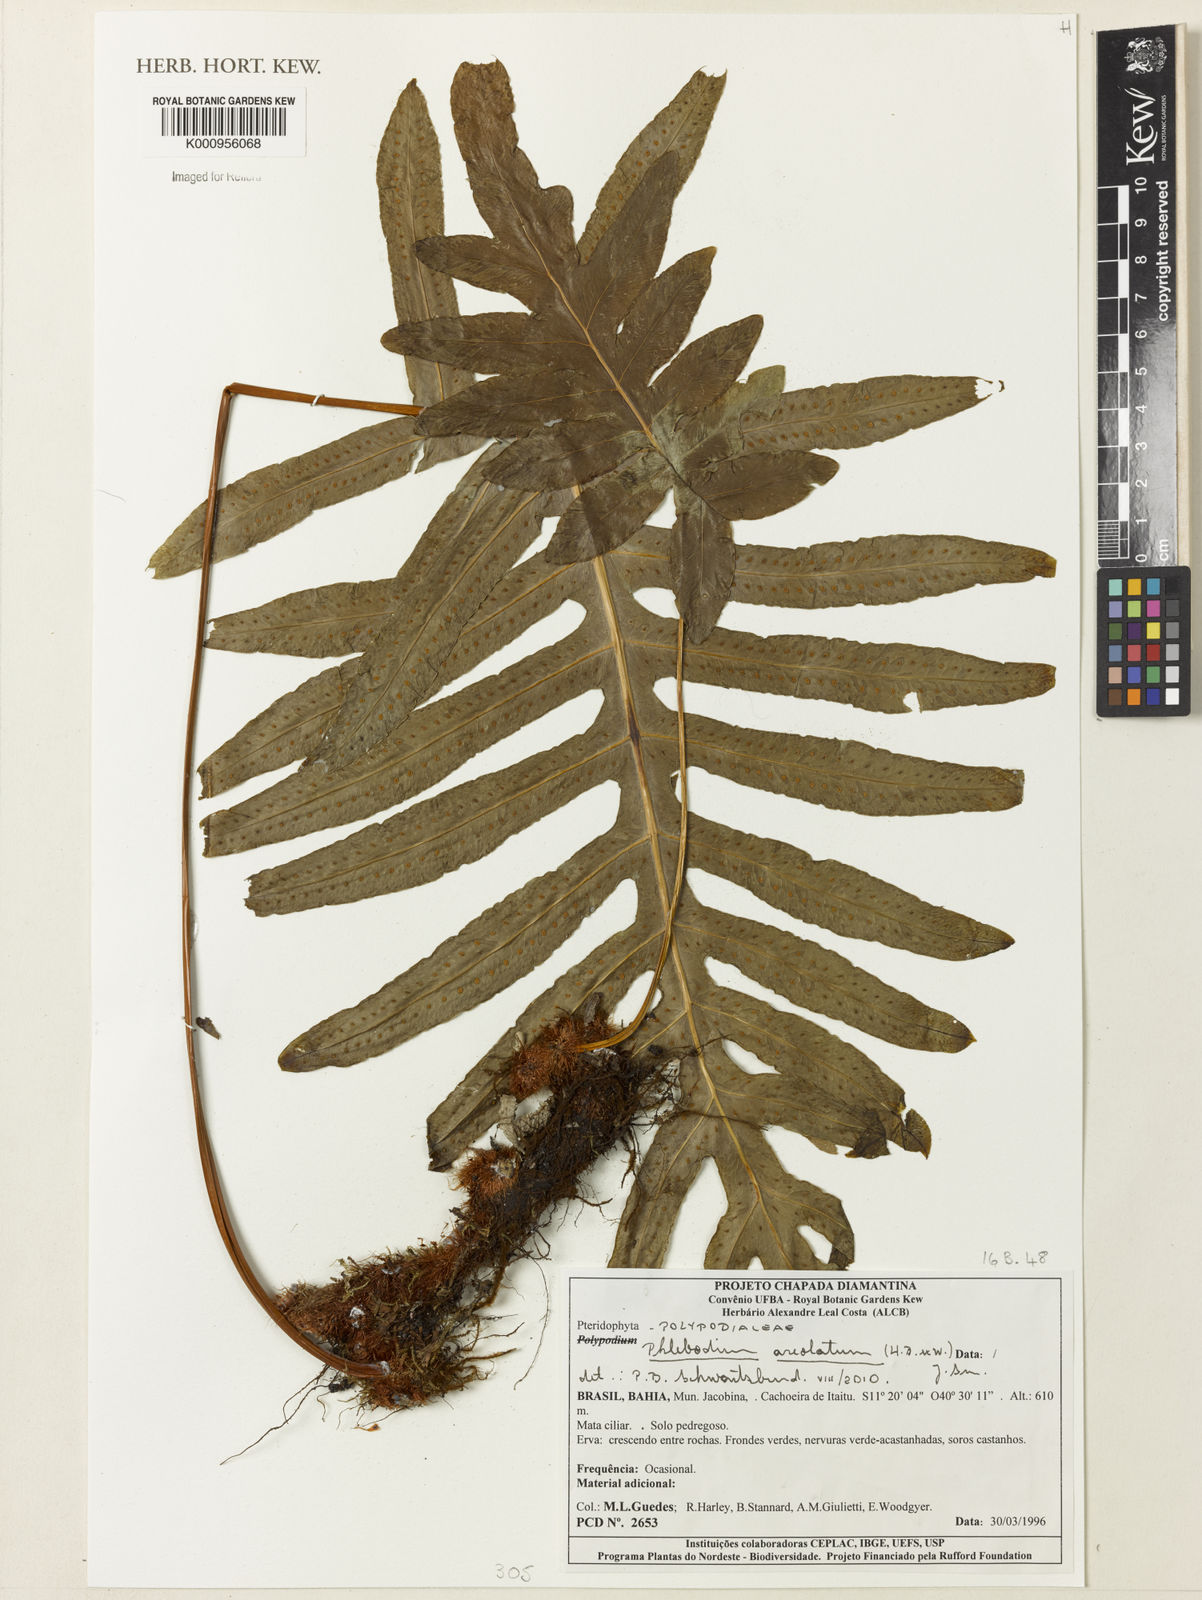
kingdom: Plantae
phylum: Tracheophyta
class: Polypodiopsida
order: Polypodiales
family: Polypodiaceae
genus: Phlebodium
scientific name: Phlebodium aureum
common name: Gold-foot fern
